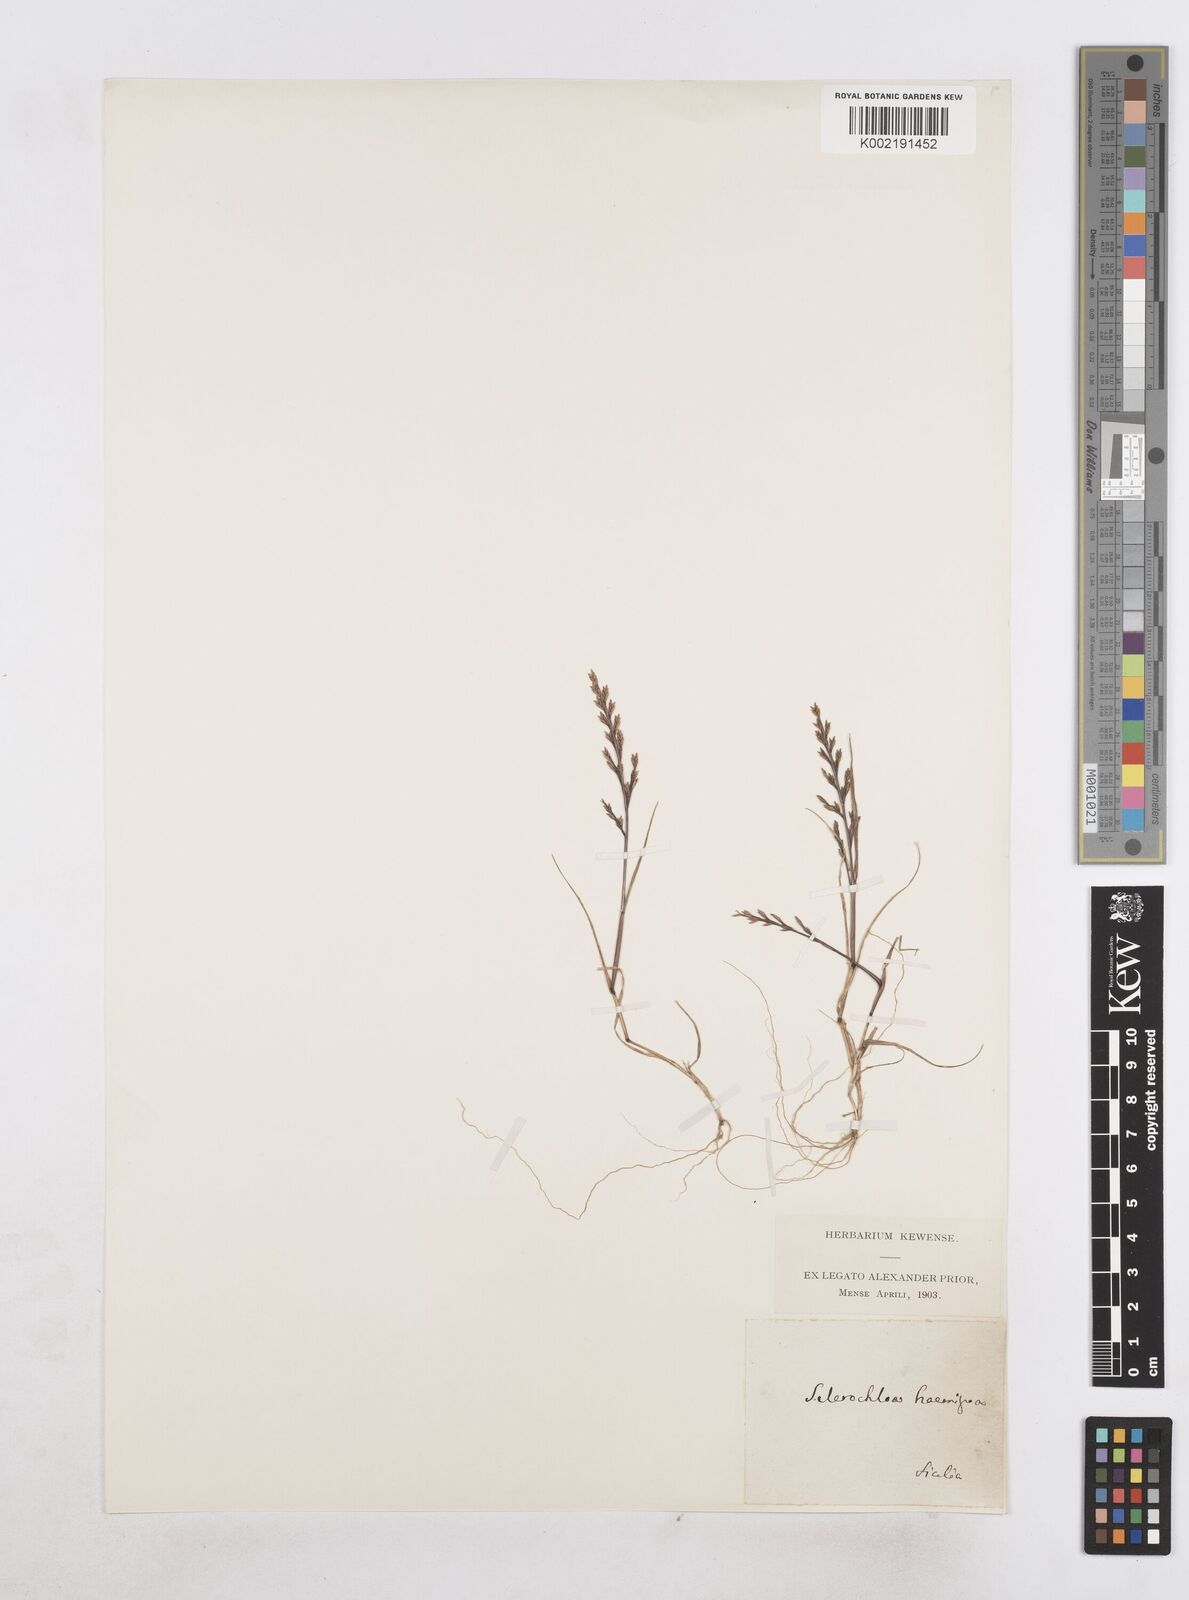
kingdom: Plantae
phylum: Tracheophyta
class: Liliopsida
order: Poales
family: Poaceae
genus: Catapodium
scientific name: Catapodium rigidum
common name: Fern-grass
